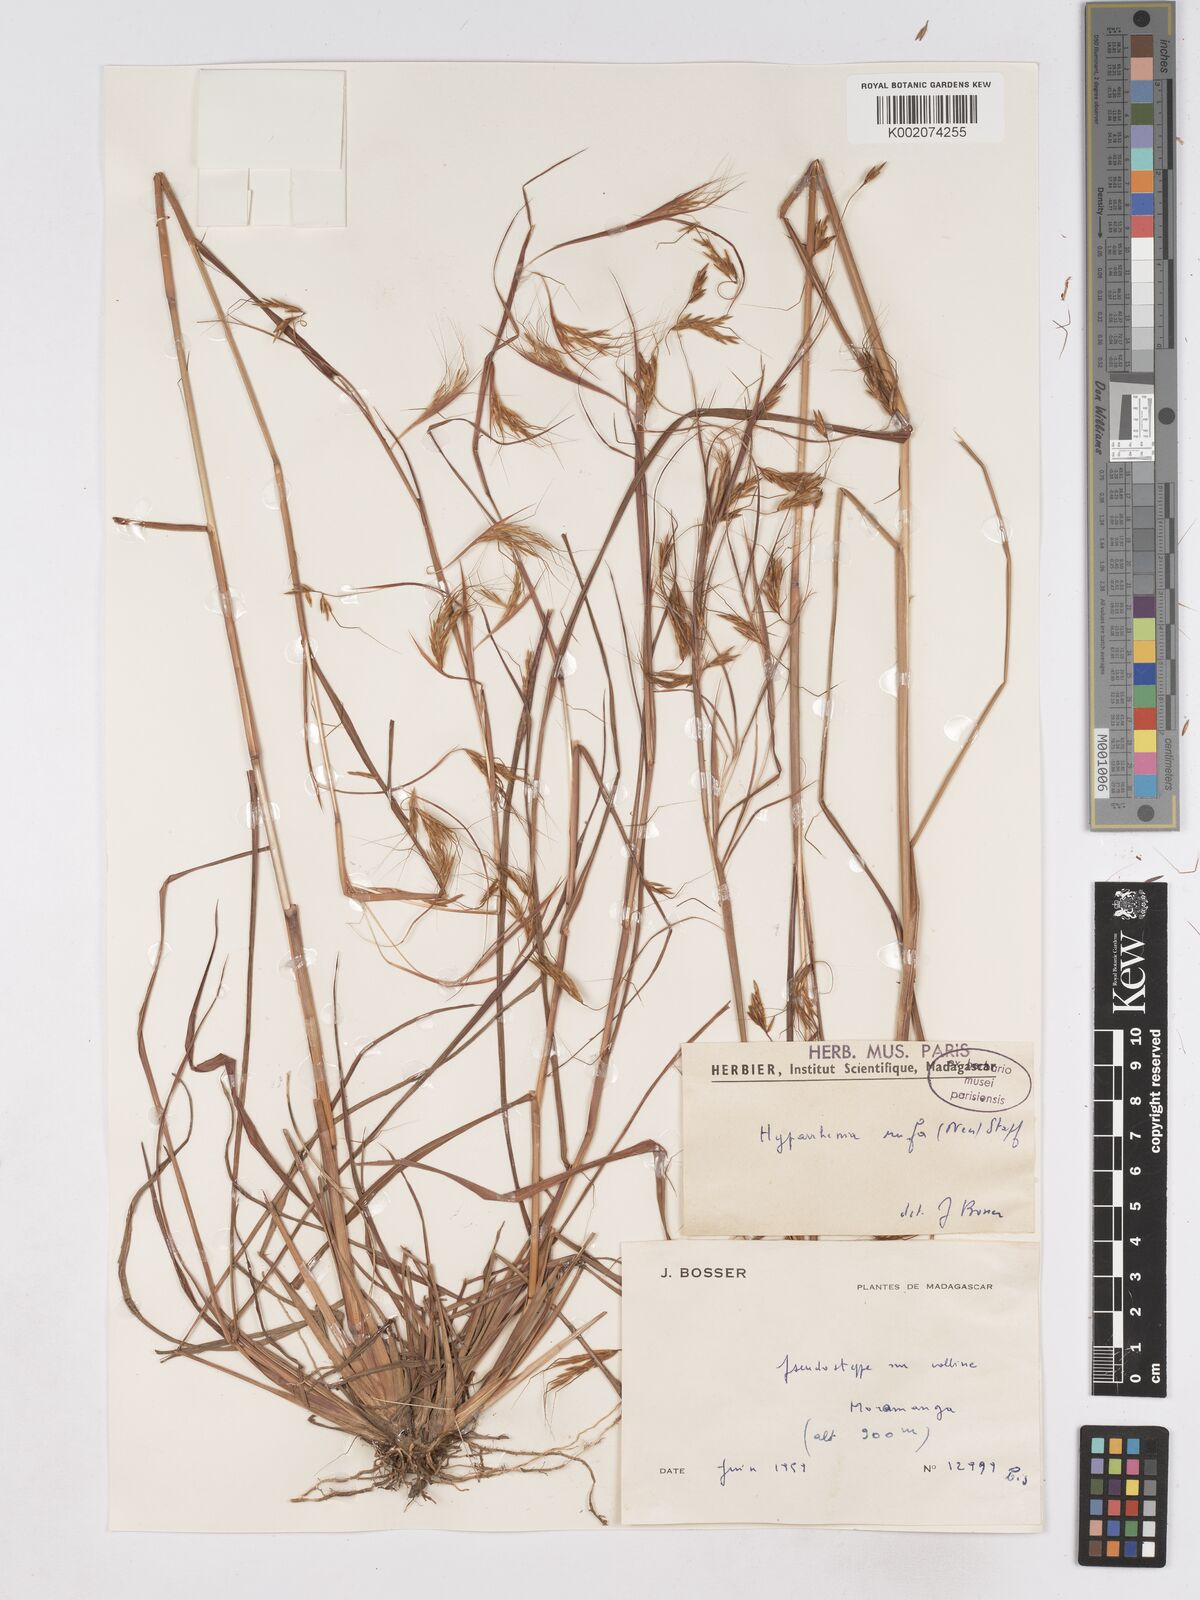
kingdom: Plantae
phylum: Tracheophyta
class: Liliopsida
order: Poales
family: Poaceae
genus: Hyparrhenia
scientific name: Hyparrhenia rufa
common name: Jaraguagrass
